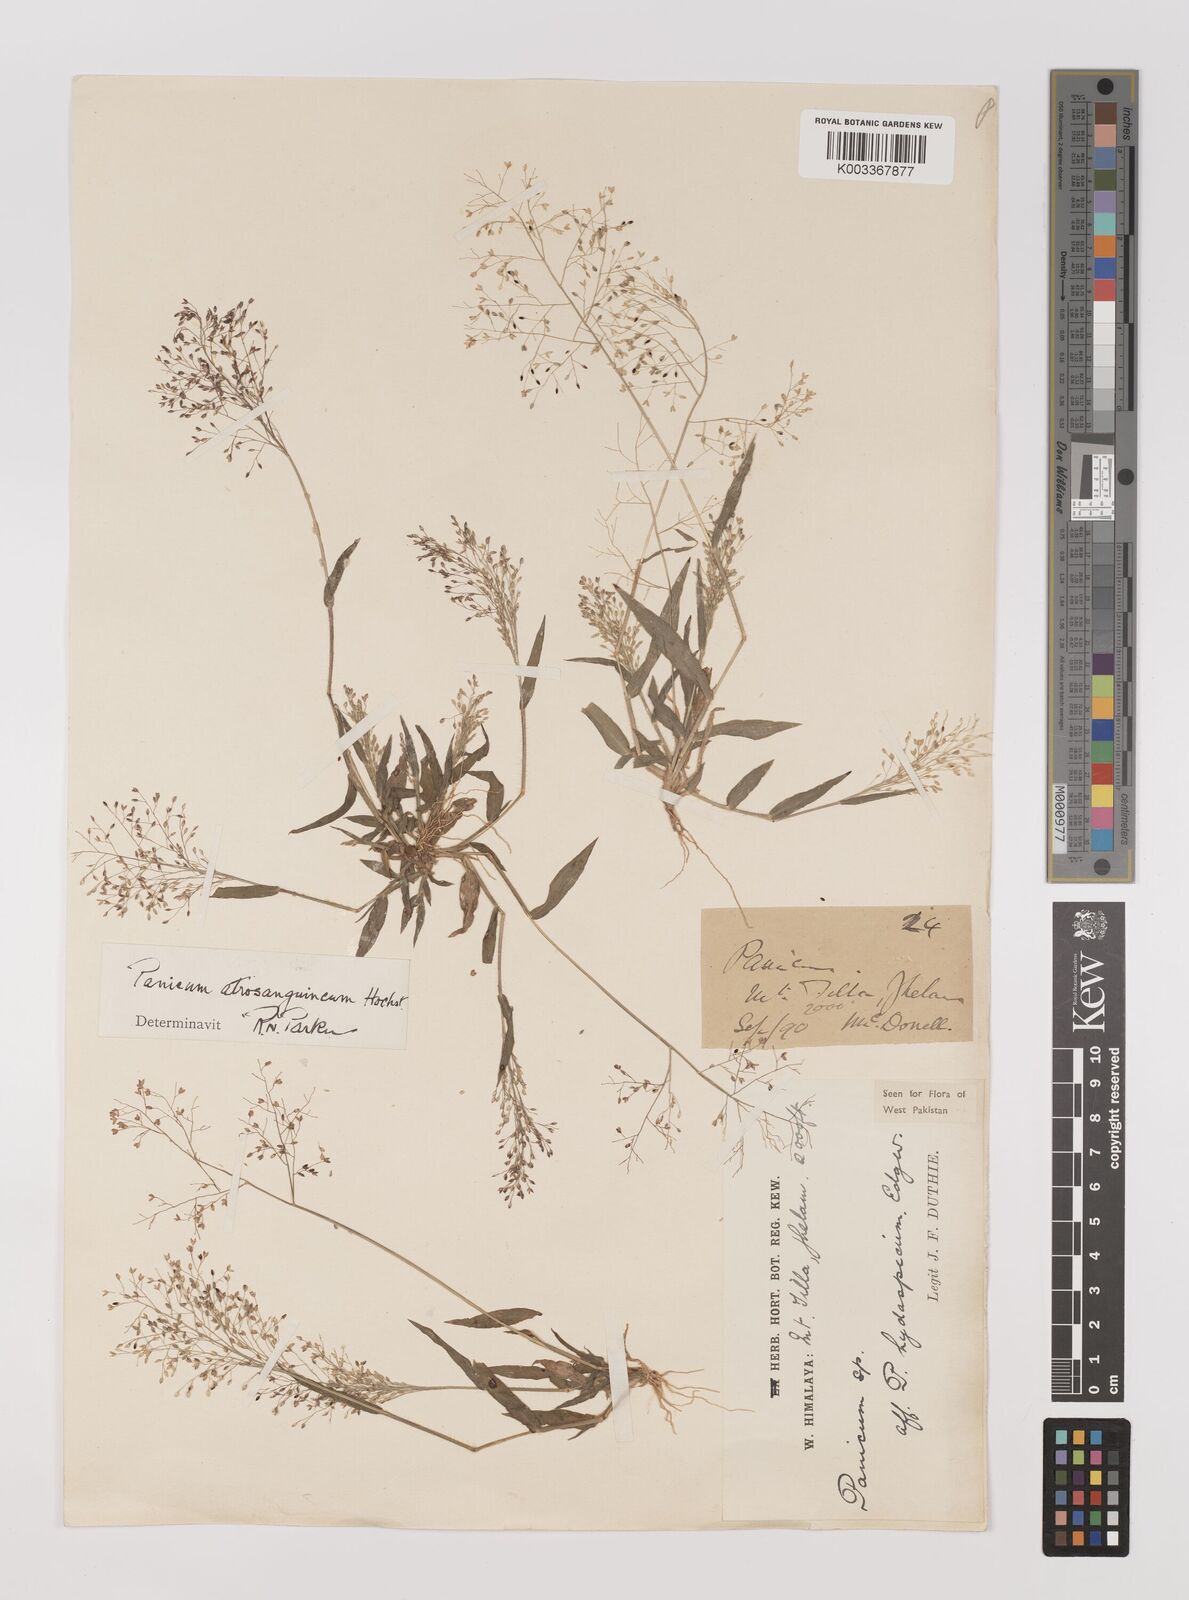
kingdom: Plantae
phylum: Tracheophyta
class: Liliopsida
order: Poales
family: Poaceae
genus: Panicum
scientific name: Panicum atrosanguineum
